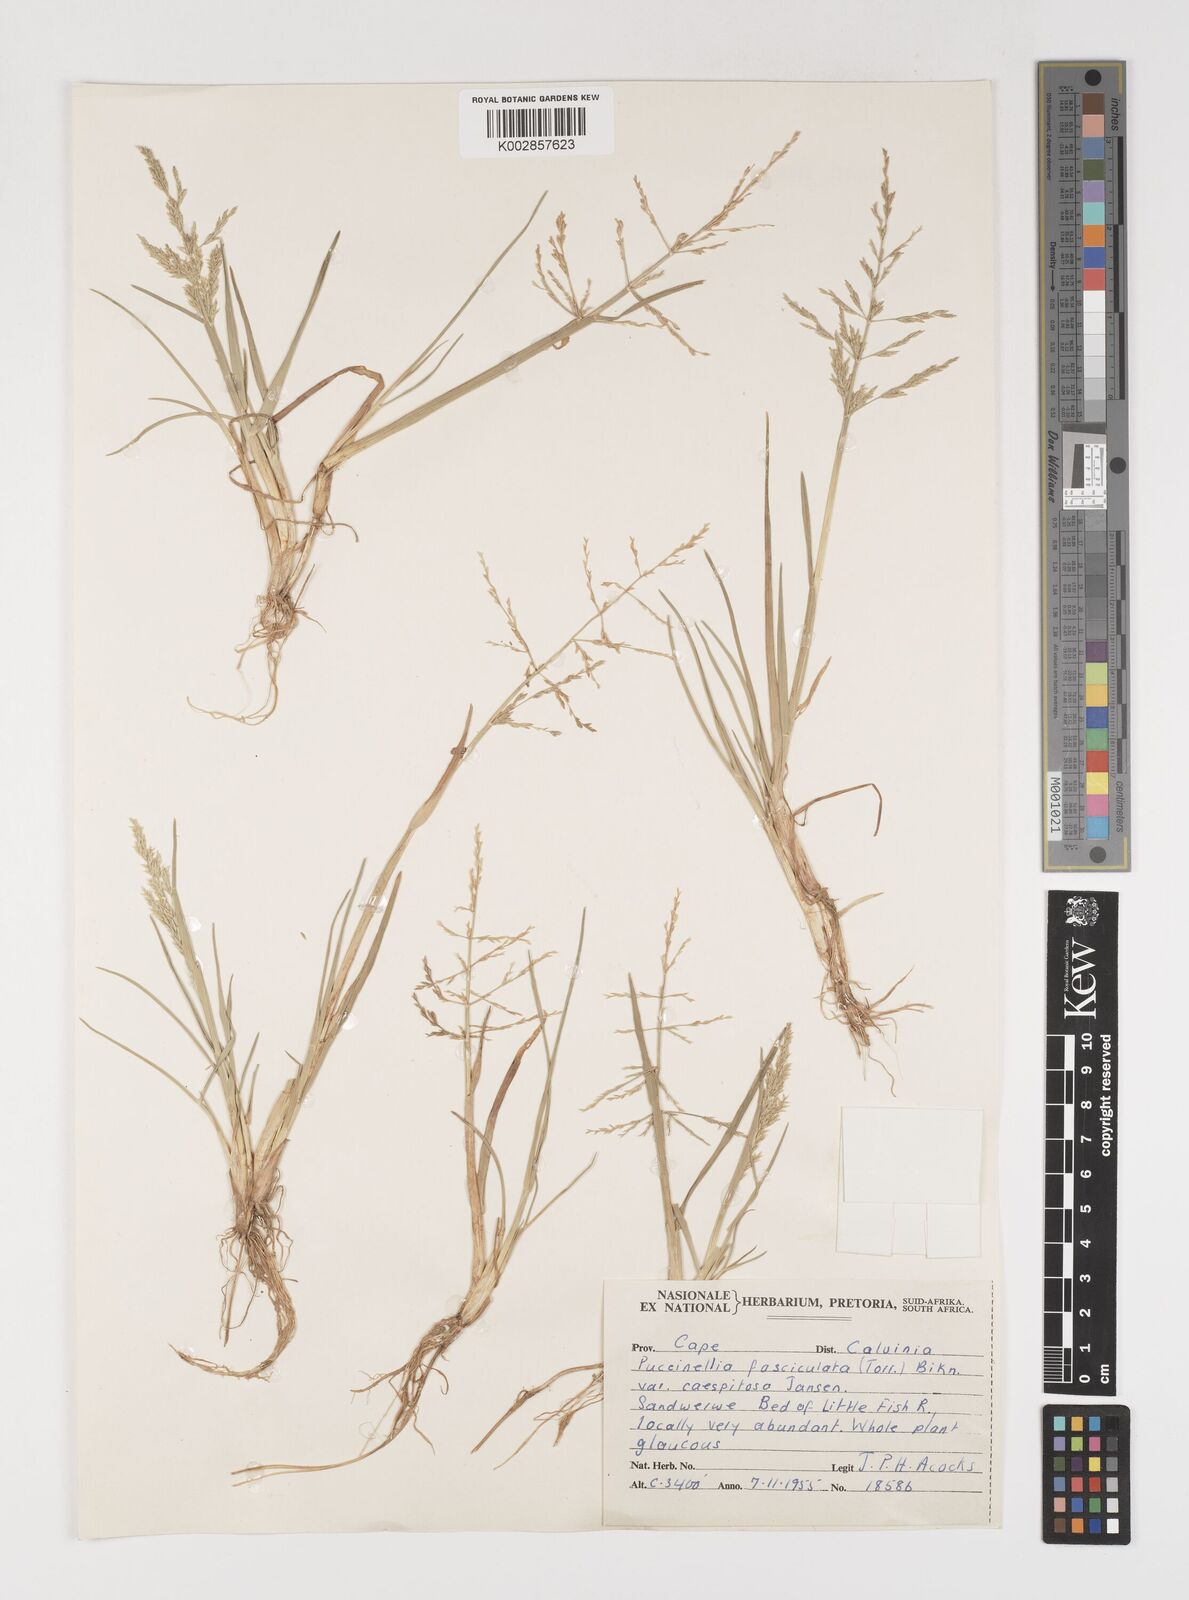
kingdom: Plantae
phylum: Tracheophyta
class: Liliopsida
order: Poales
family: Poaceae
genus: Puccinellia
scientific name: Puccinellia fasciculata
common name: Borrer's saltmarsh-grass
